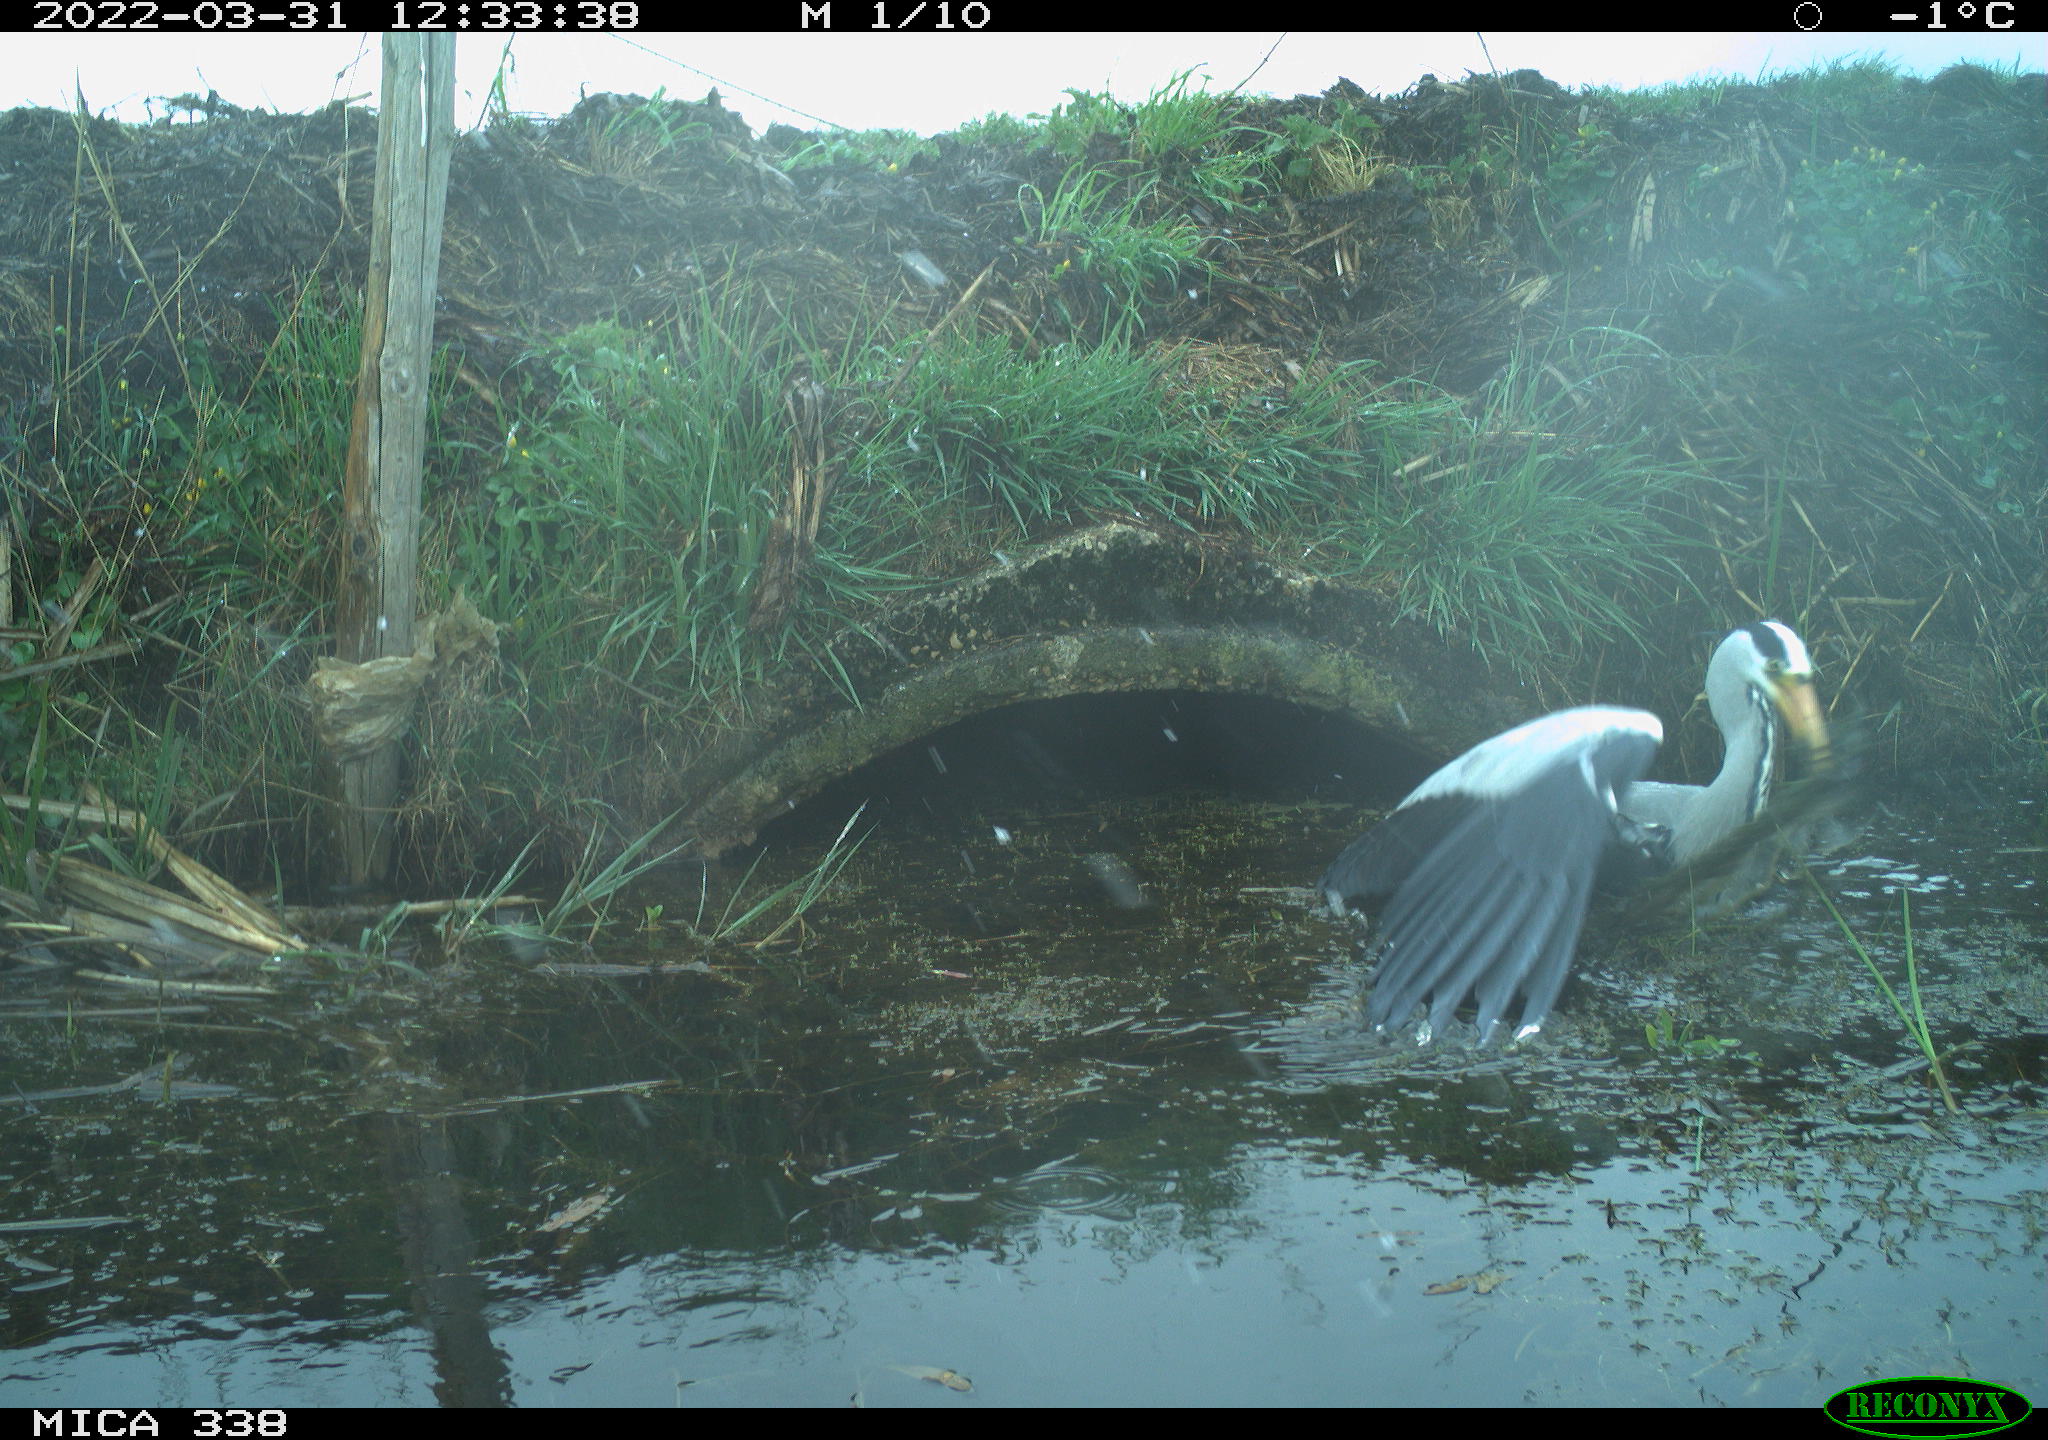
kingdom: Animalia
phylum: Chordata
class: Aves
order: Pelecaniformes
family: Ardeidae
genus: Ardea
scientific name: Ardea cinerea
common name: Grey heron
